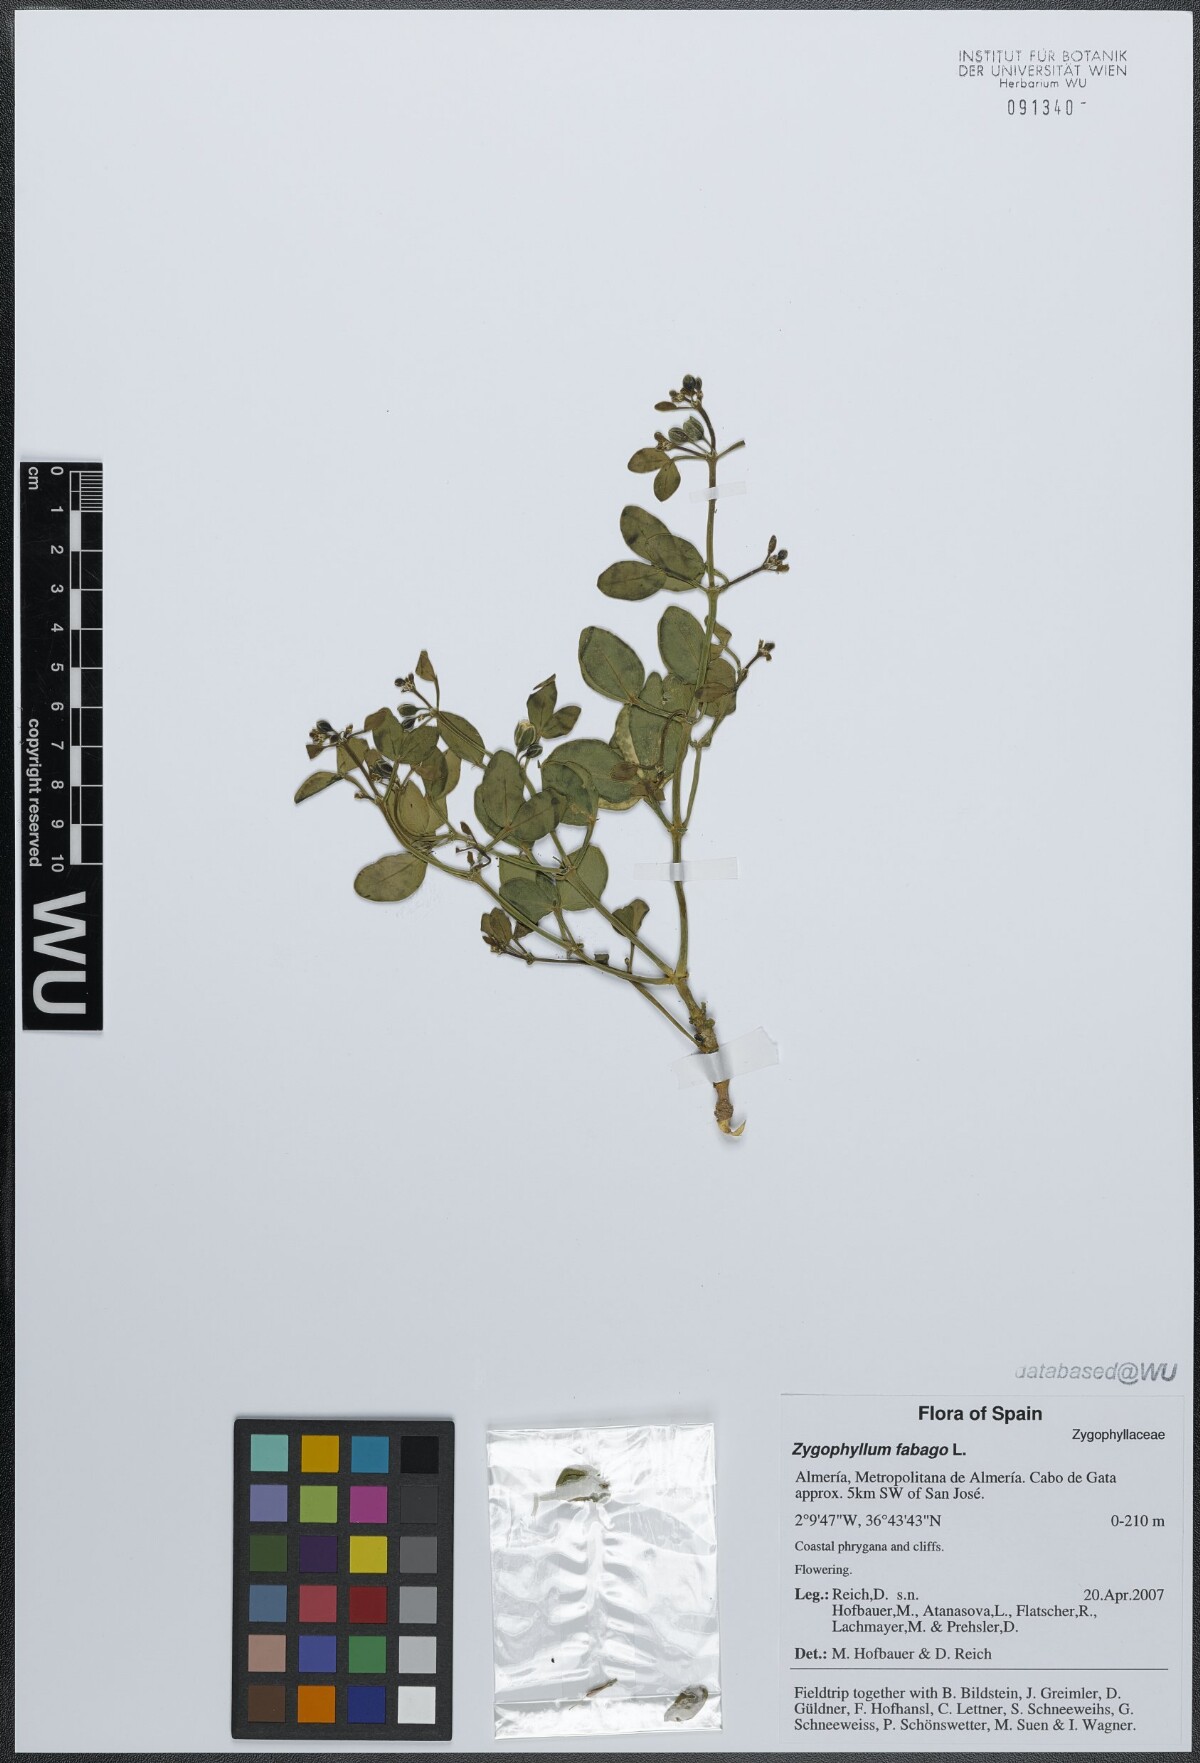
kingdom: Plantae
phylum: Tracheophyta
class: Magnoliopsida
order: Zygophyllales
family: Zygophyllaceae
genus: Zygophyllum
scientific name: Zygophyllum fabago
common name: Syrian beancaper
